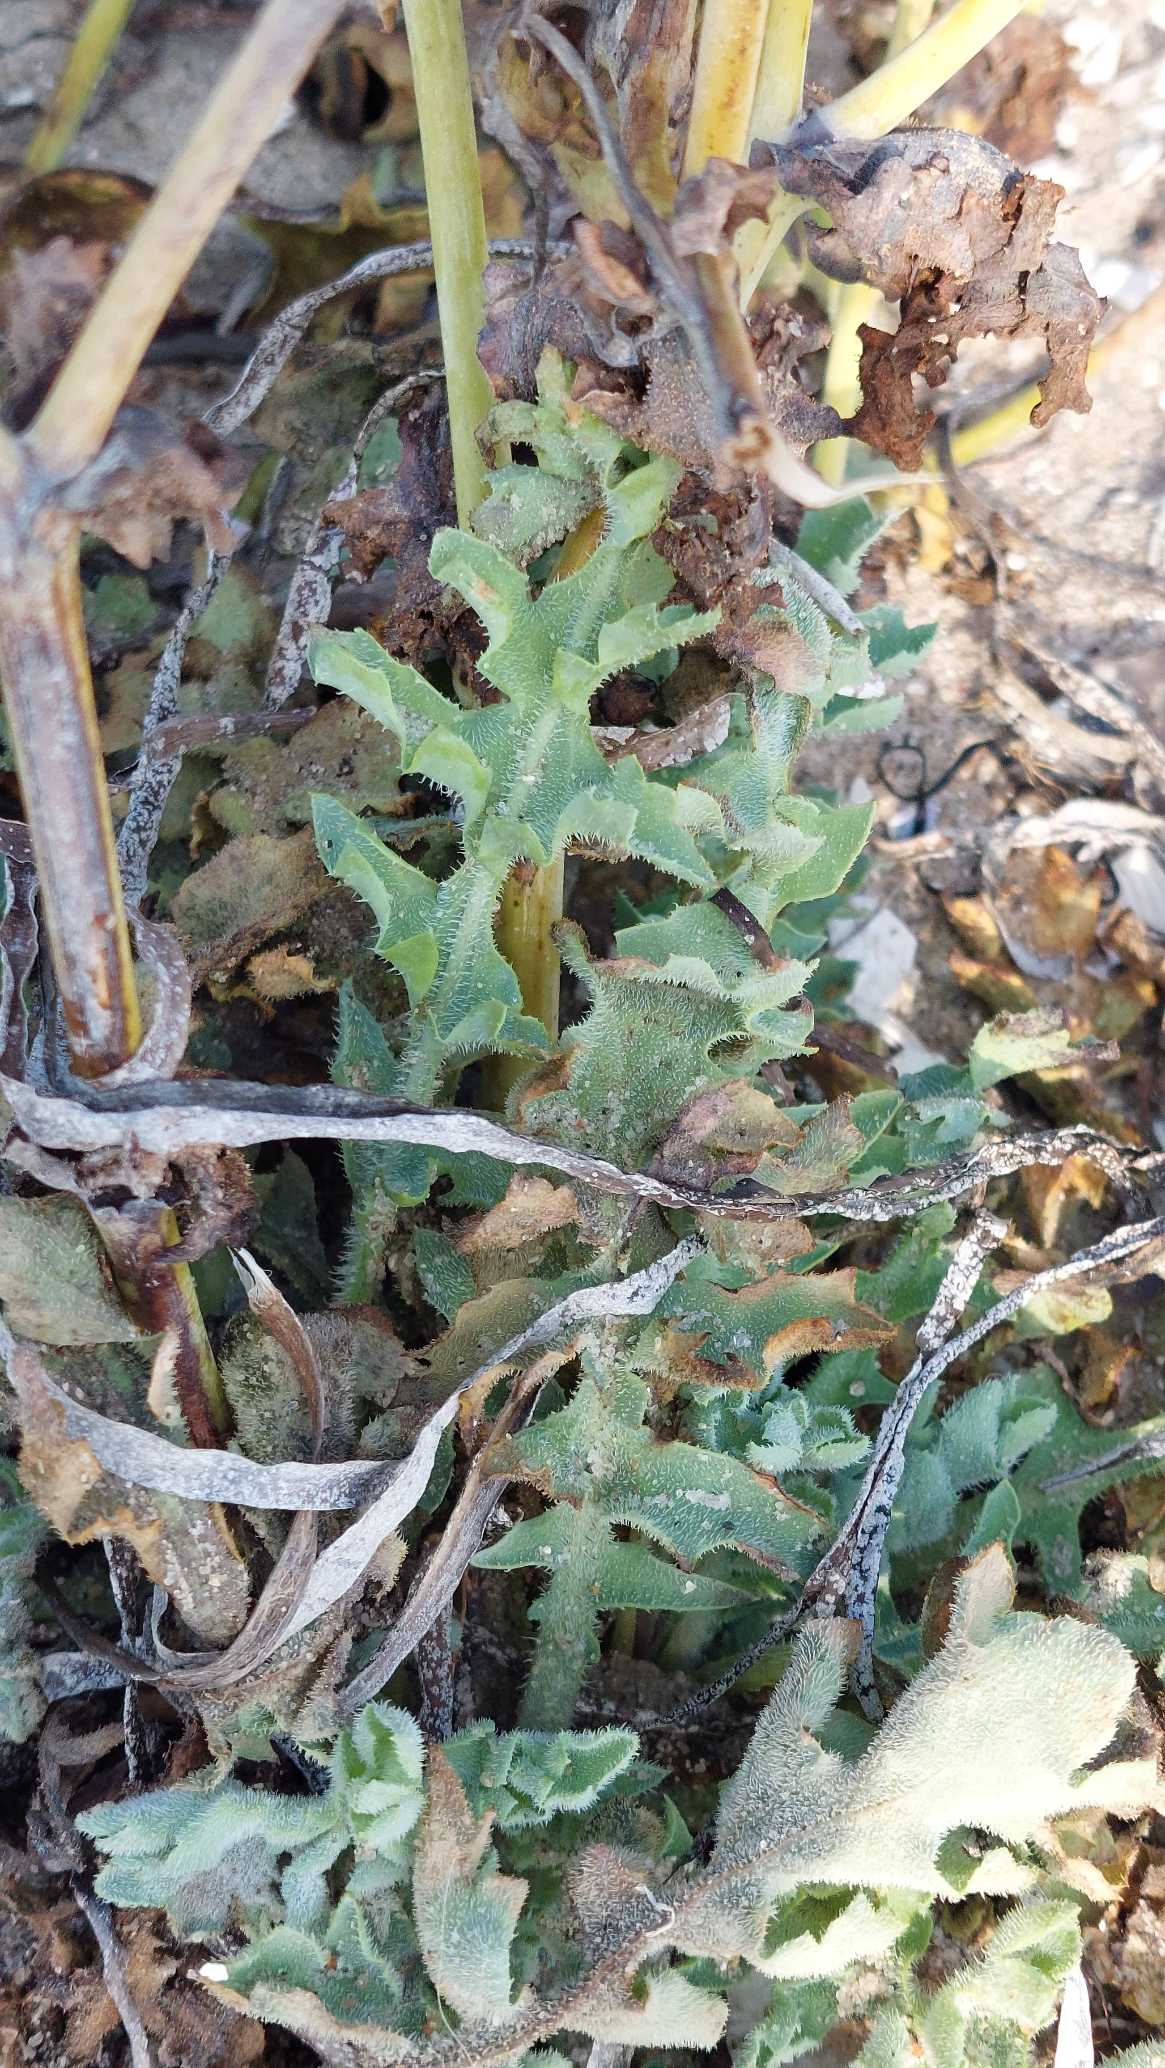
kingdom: Plantae
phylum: Tracheophyta
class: Magnoliopsida
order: Ranunculales
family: Papaveraceae
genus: Glaucium
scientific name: Glaucium flavum
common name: Hornskulpe
